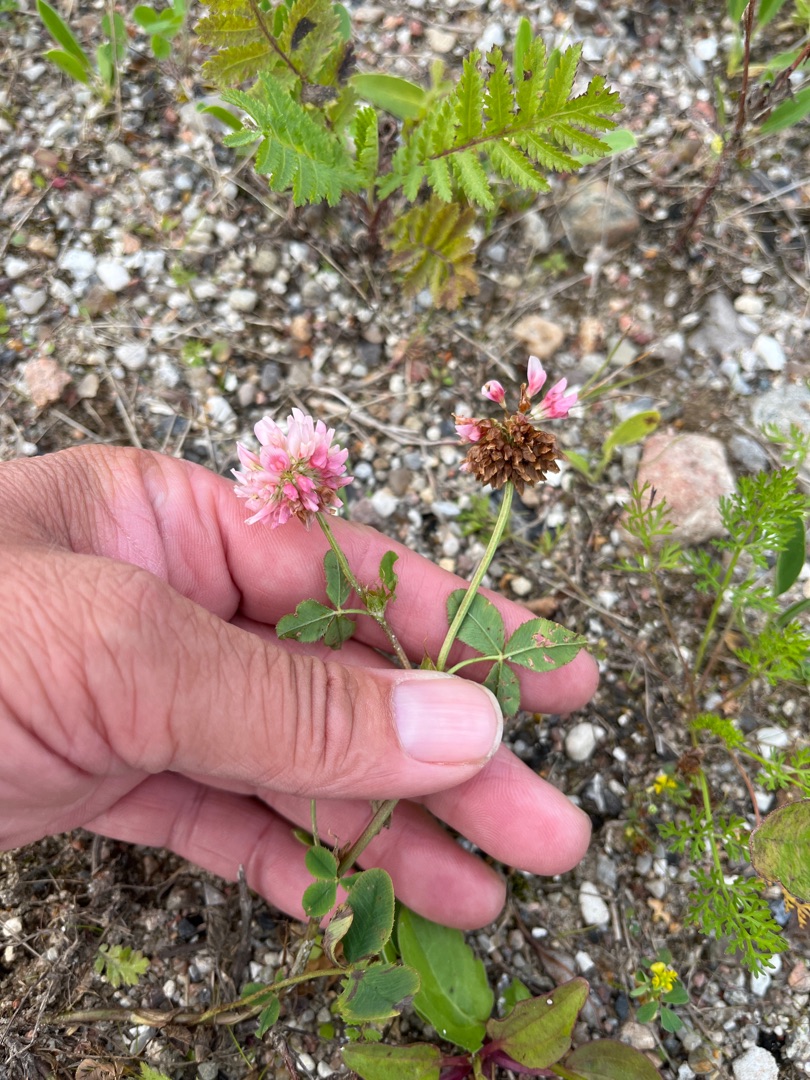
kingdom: Plantae
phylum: Tracheophyta
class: Magnoliopsida
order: Fabales
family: Fabaceae
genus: Trifolium
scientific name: Trifolium hybridum
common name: Alsike-kløver
